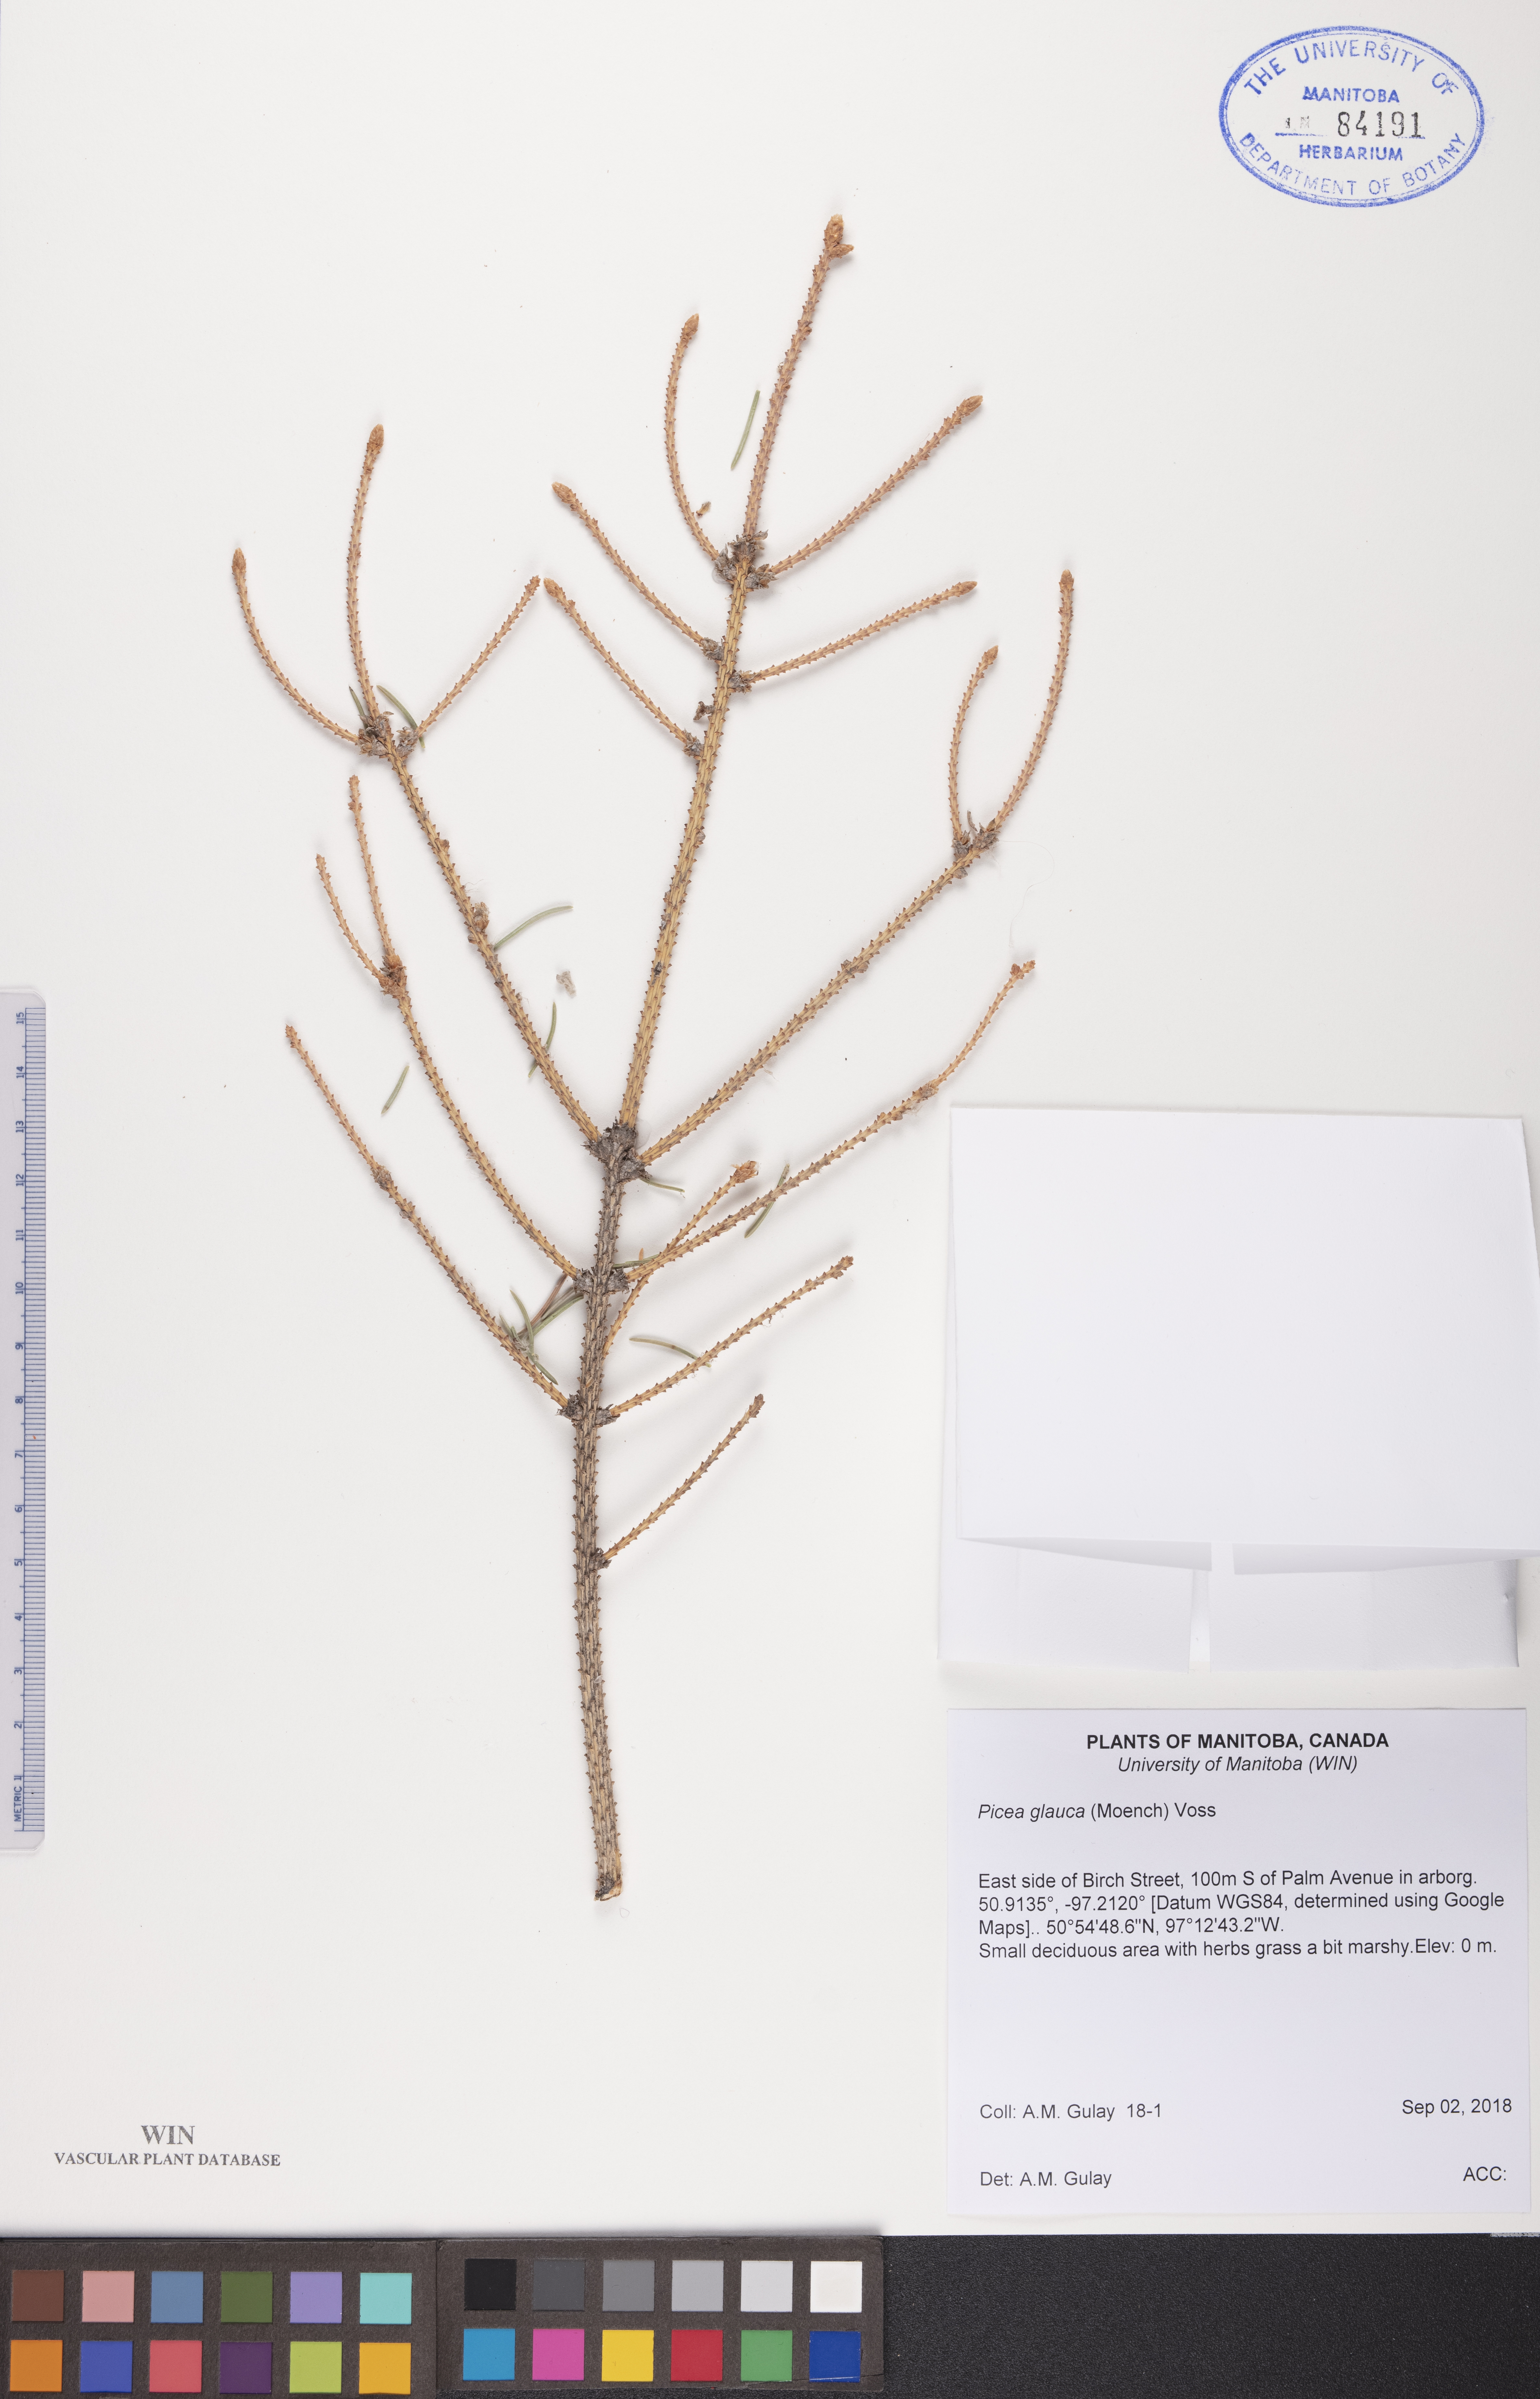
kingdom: Plantae
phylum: Tracheophyta
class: Pinopsida
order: Pinales
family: Pinaceae
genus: Picea
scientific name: Picea glauca
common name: White spruce
